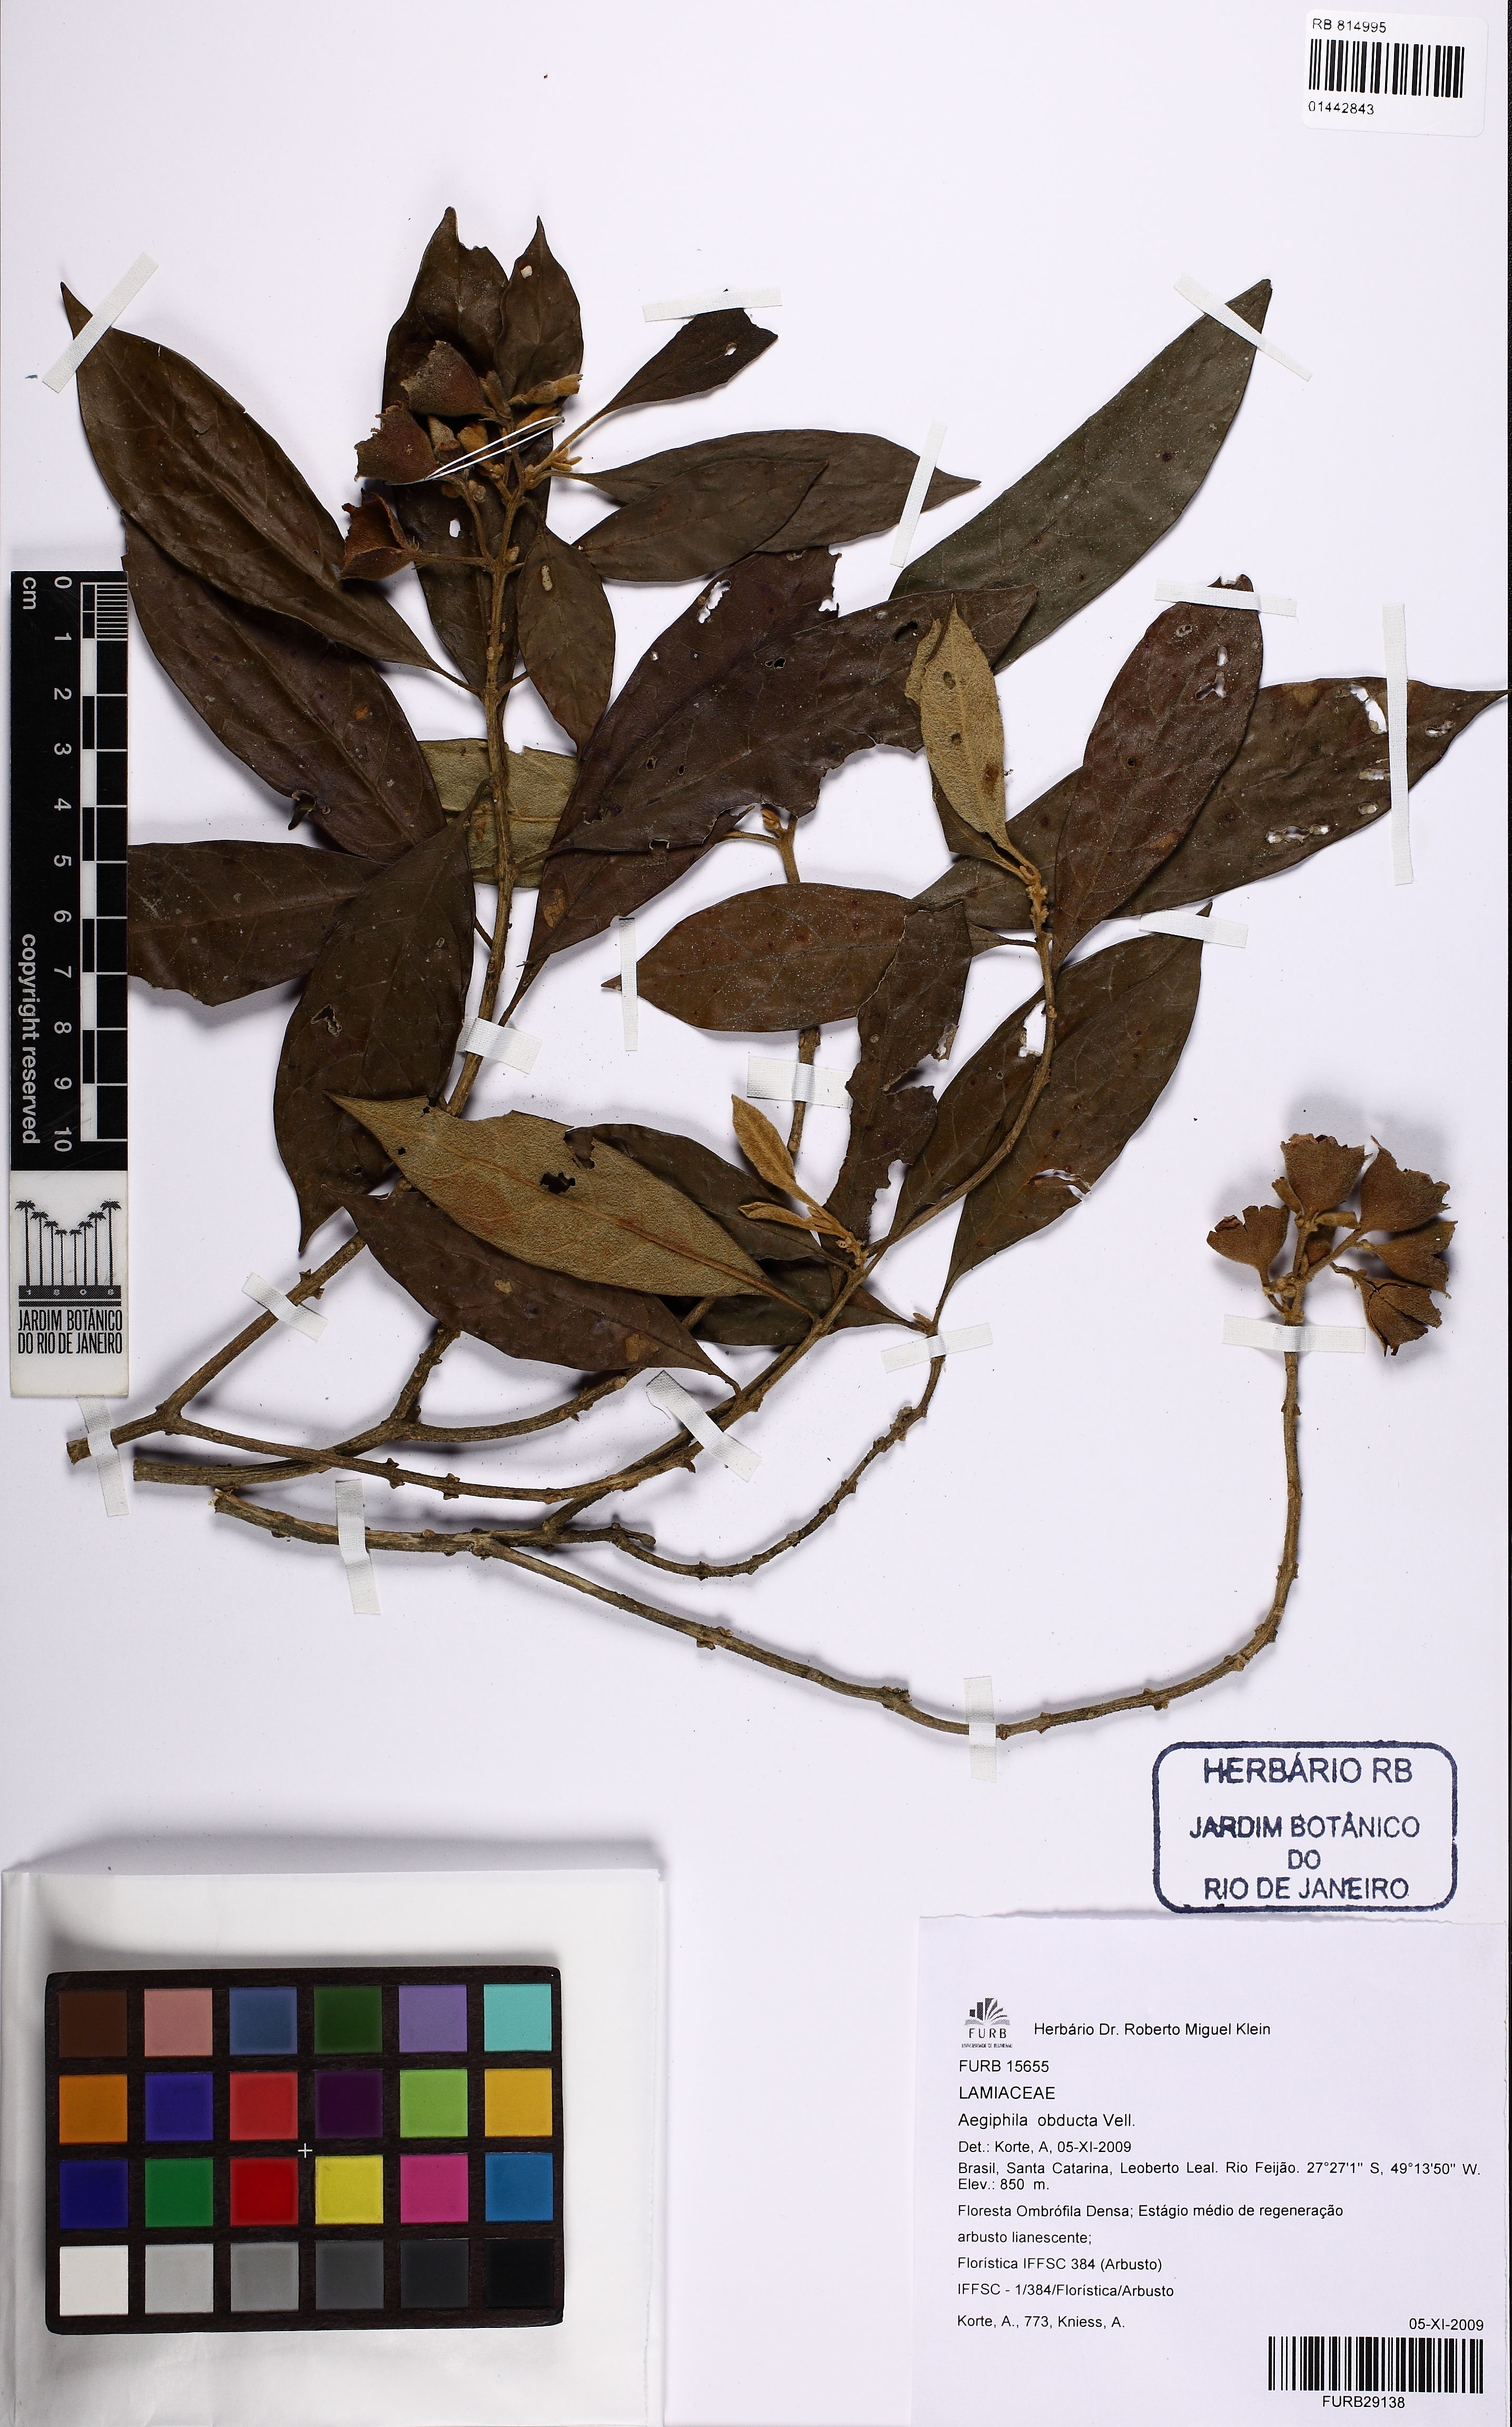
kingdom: Plantae
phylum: Tracheophyta
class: Magnoliopsida
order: Lamiales
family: Lamiaceae
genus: Aegiphila
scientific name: Aegiphila obducta
